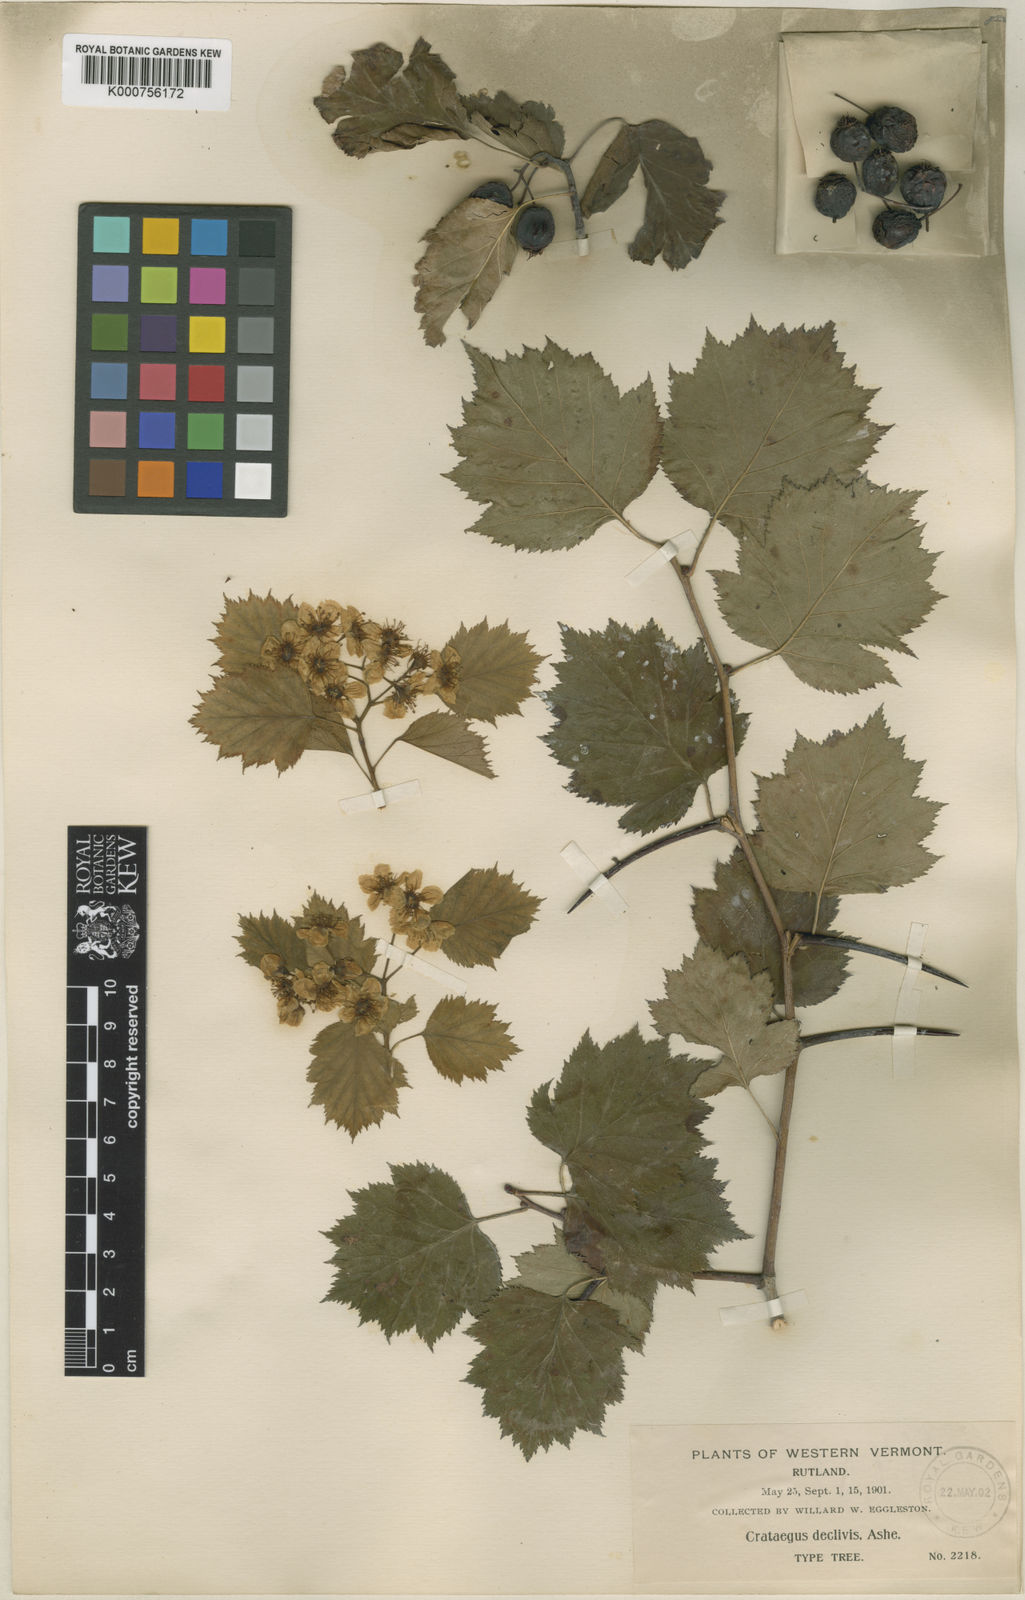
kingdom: Plantae
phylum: Tracheophyta
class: Magnoliopsida
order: Rosales
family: Rosaceae
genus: Crataegus
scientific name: Crataegus
